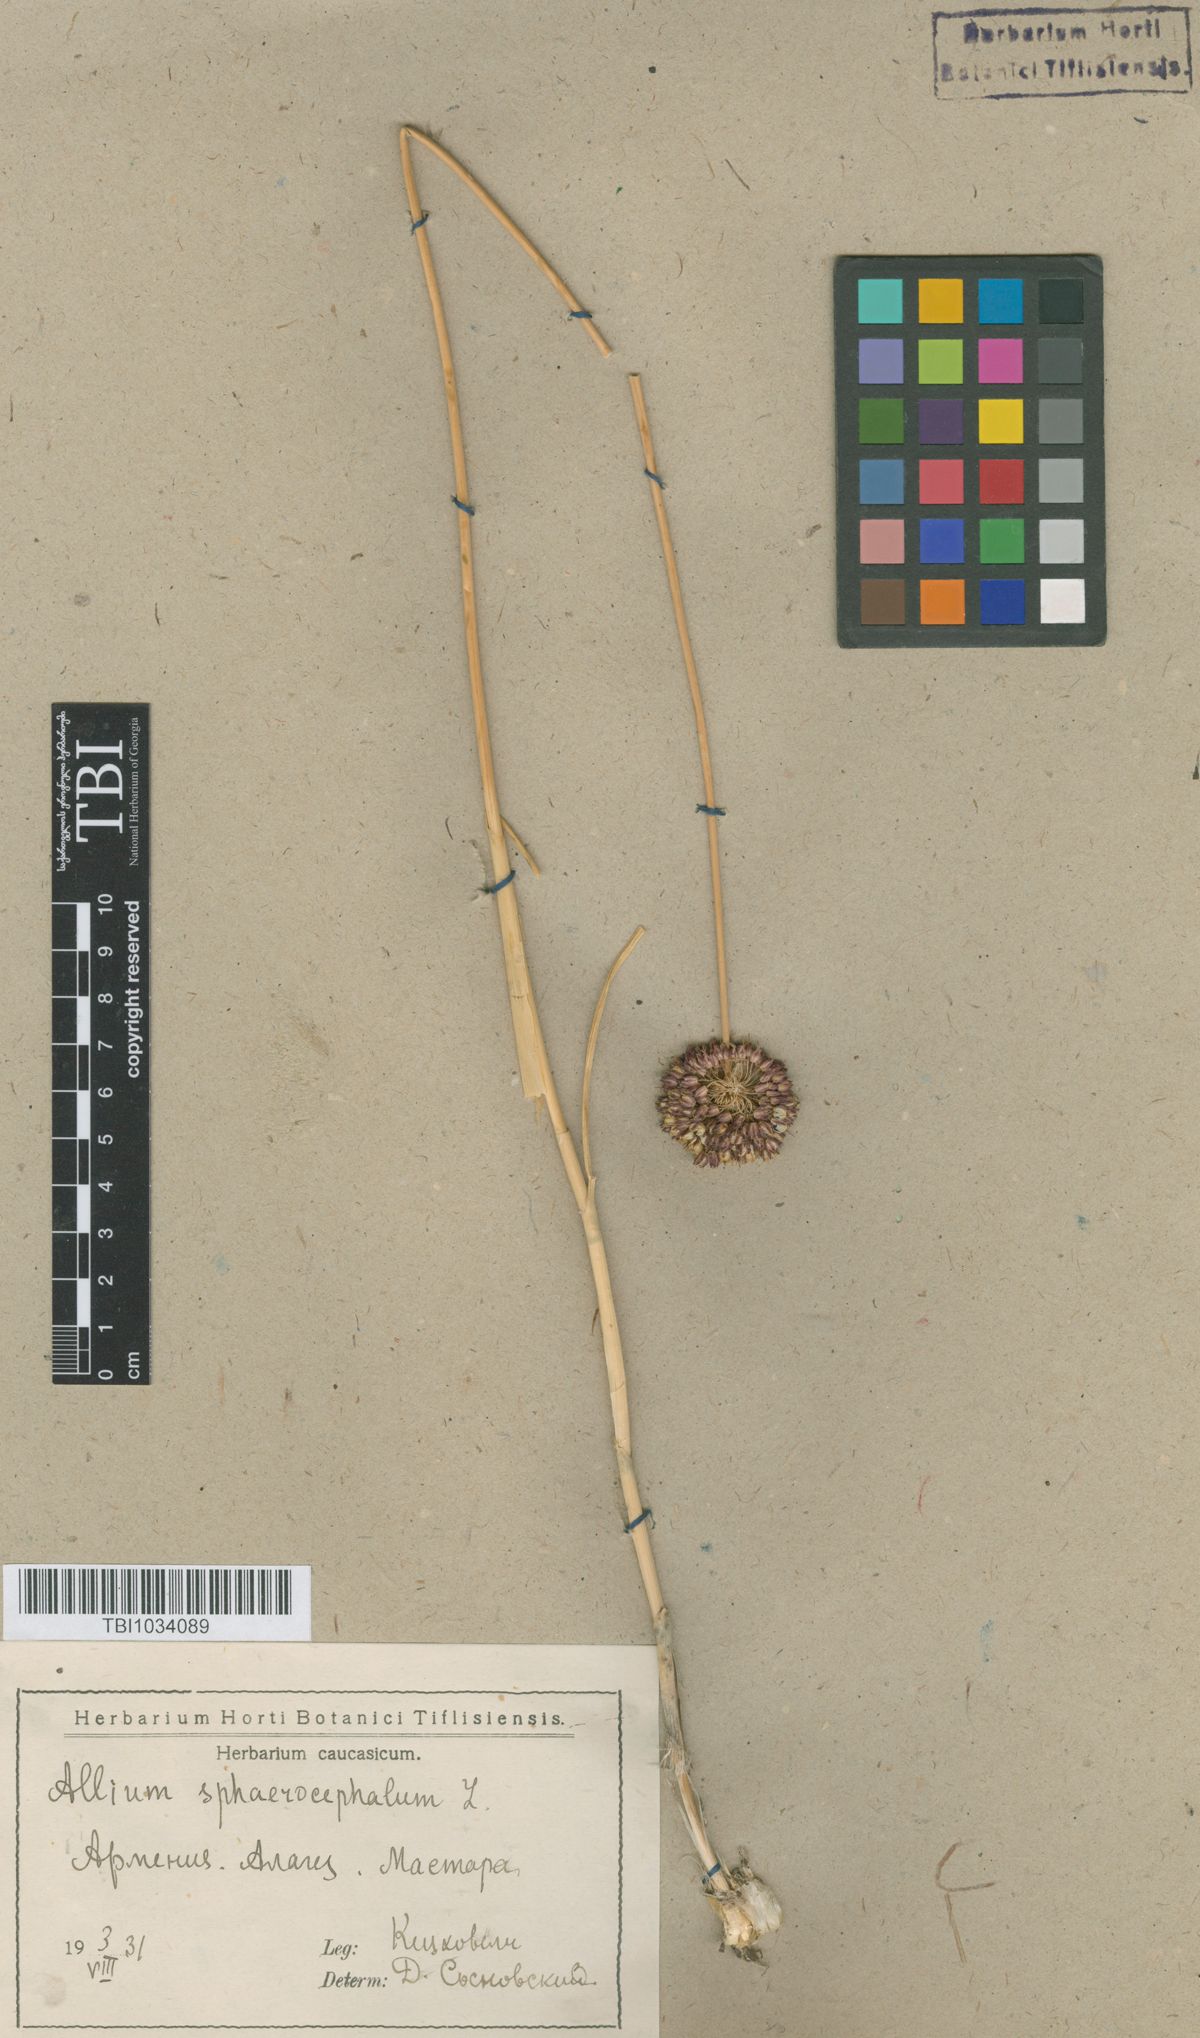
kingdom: Plantae
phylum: Tracheophyta
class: Liliopsida
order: Asparagales
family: Amaryllidaceae
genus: Allium
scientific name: Allium sphaerocephalon
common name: Round-headed leek
